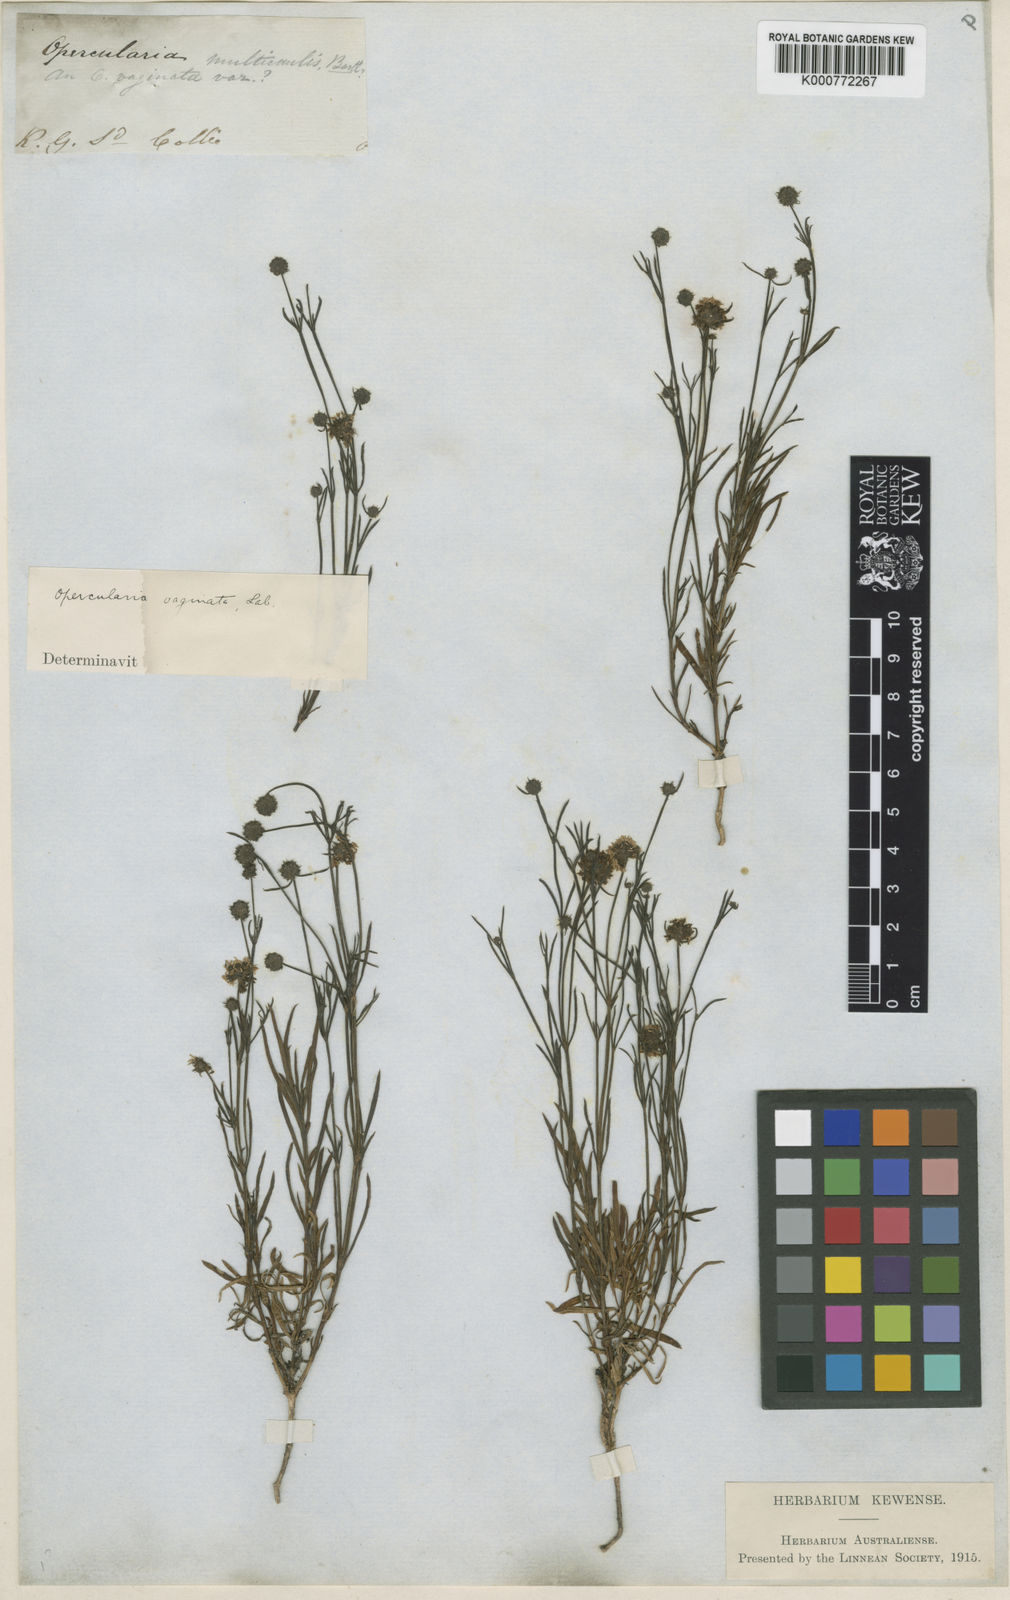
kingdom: Plantae
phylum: Tracheophyta
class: Magnoliopsida
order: Gentianales
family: Rubiaceae
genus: Opercularia
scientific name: Opercularia vaginata
